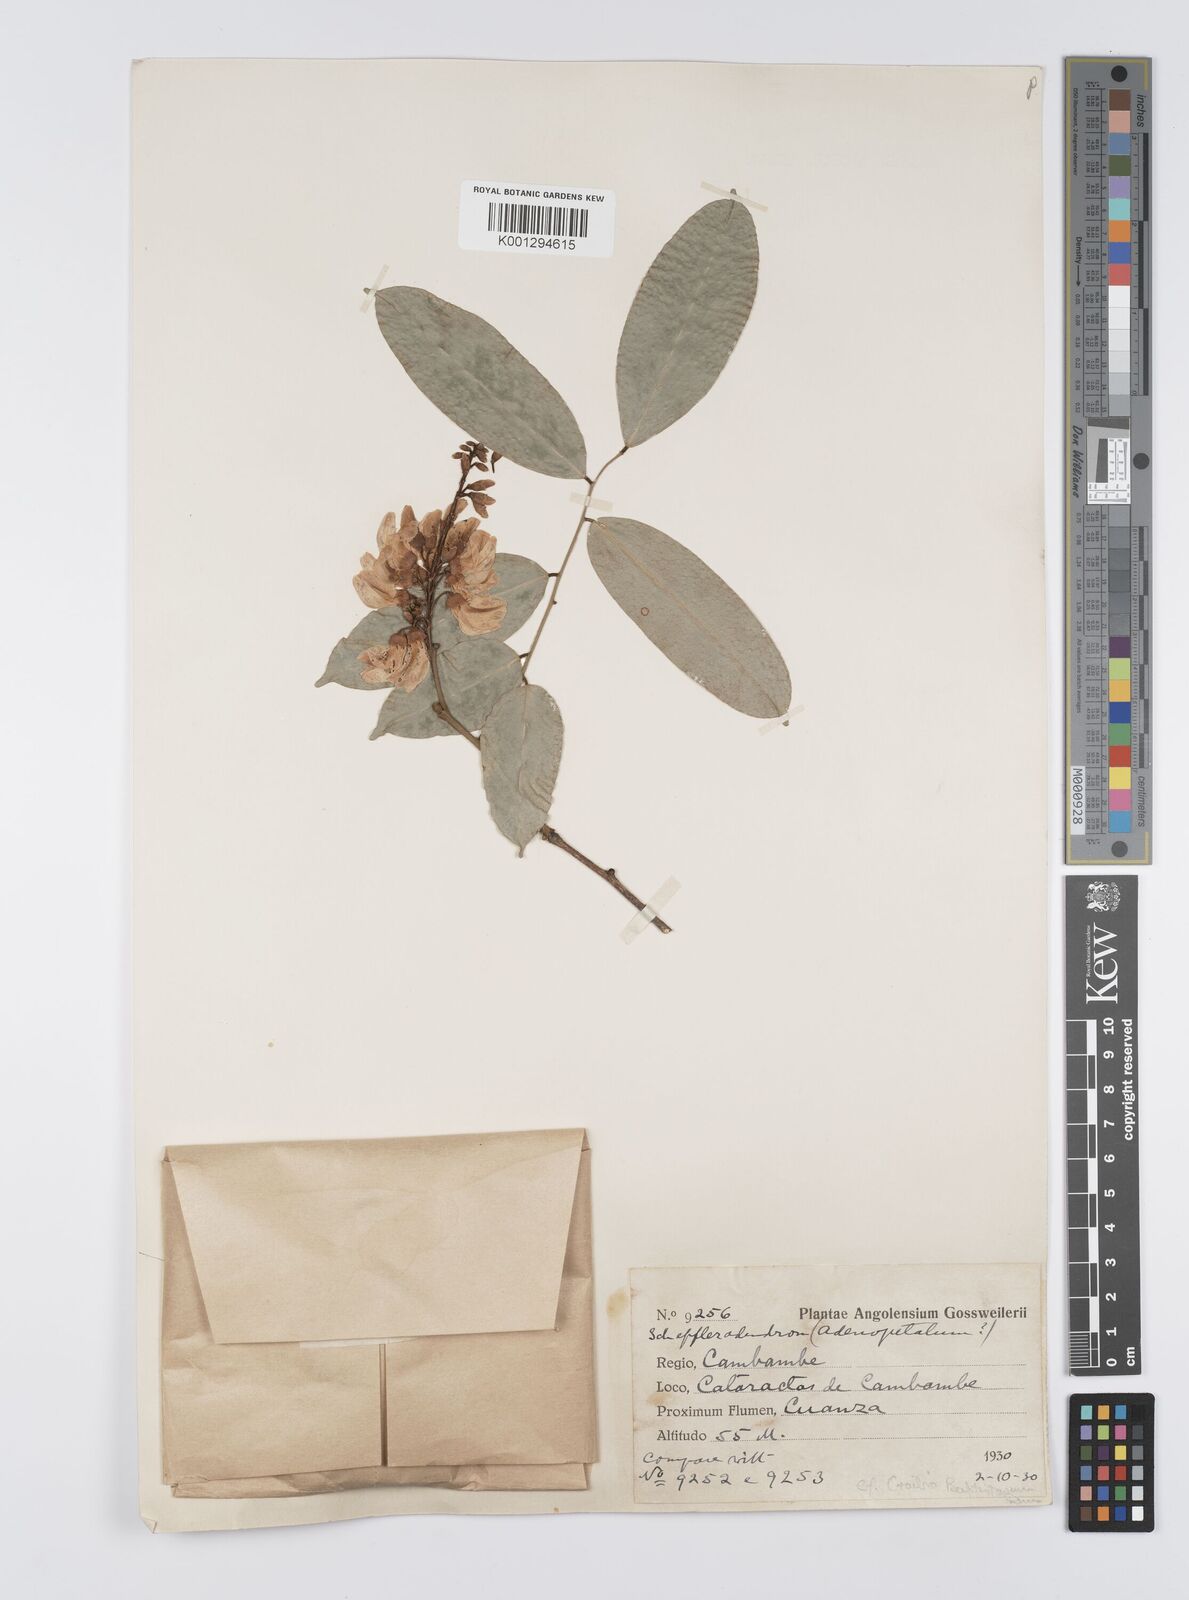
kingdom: Plantae
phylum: Tracheophyta
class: Magnoliopsida
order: Fabales
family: Fabaceae
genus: Craibia
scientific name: Craibia brevicaudata
